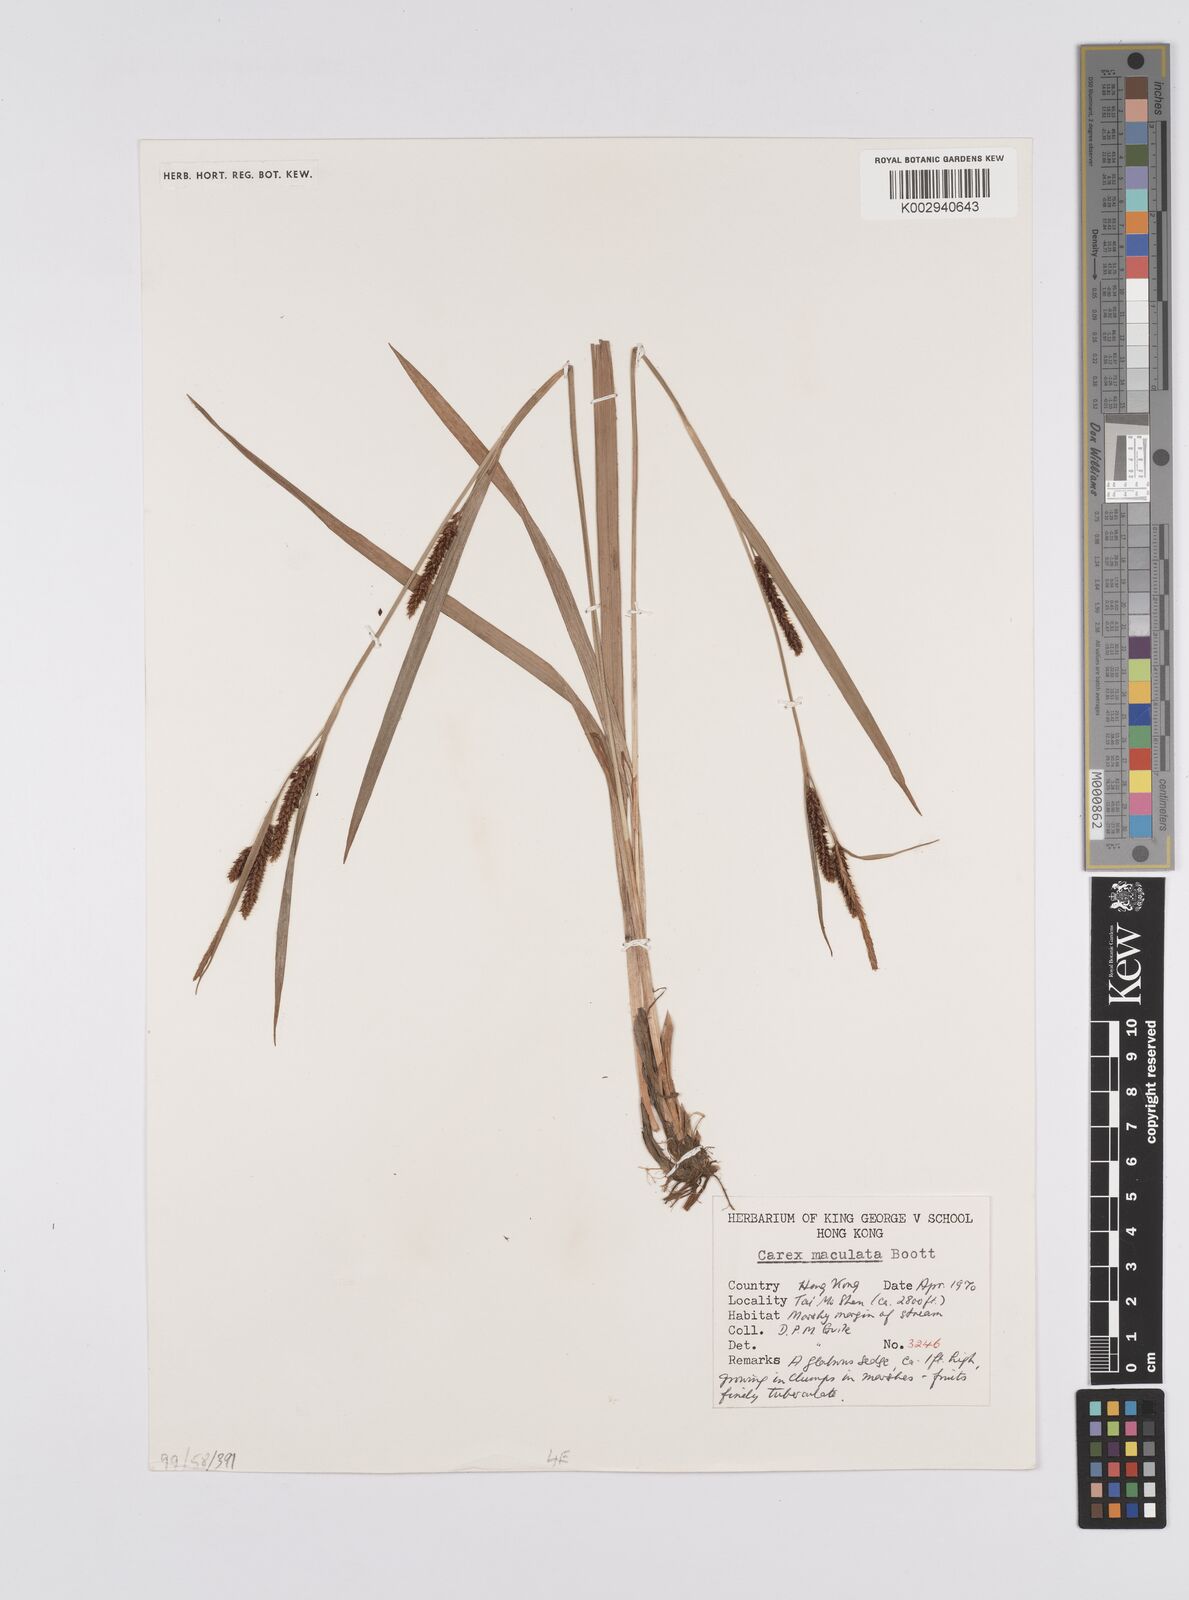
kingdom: Plantae
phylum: Tracheophyta
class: Liliopsida
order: Poales
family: Cyperaceae
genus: Carex
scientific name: Carex maculata
